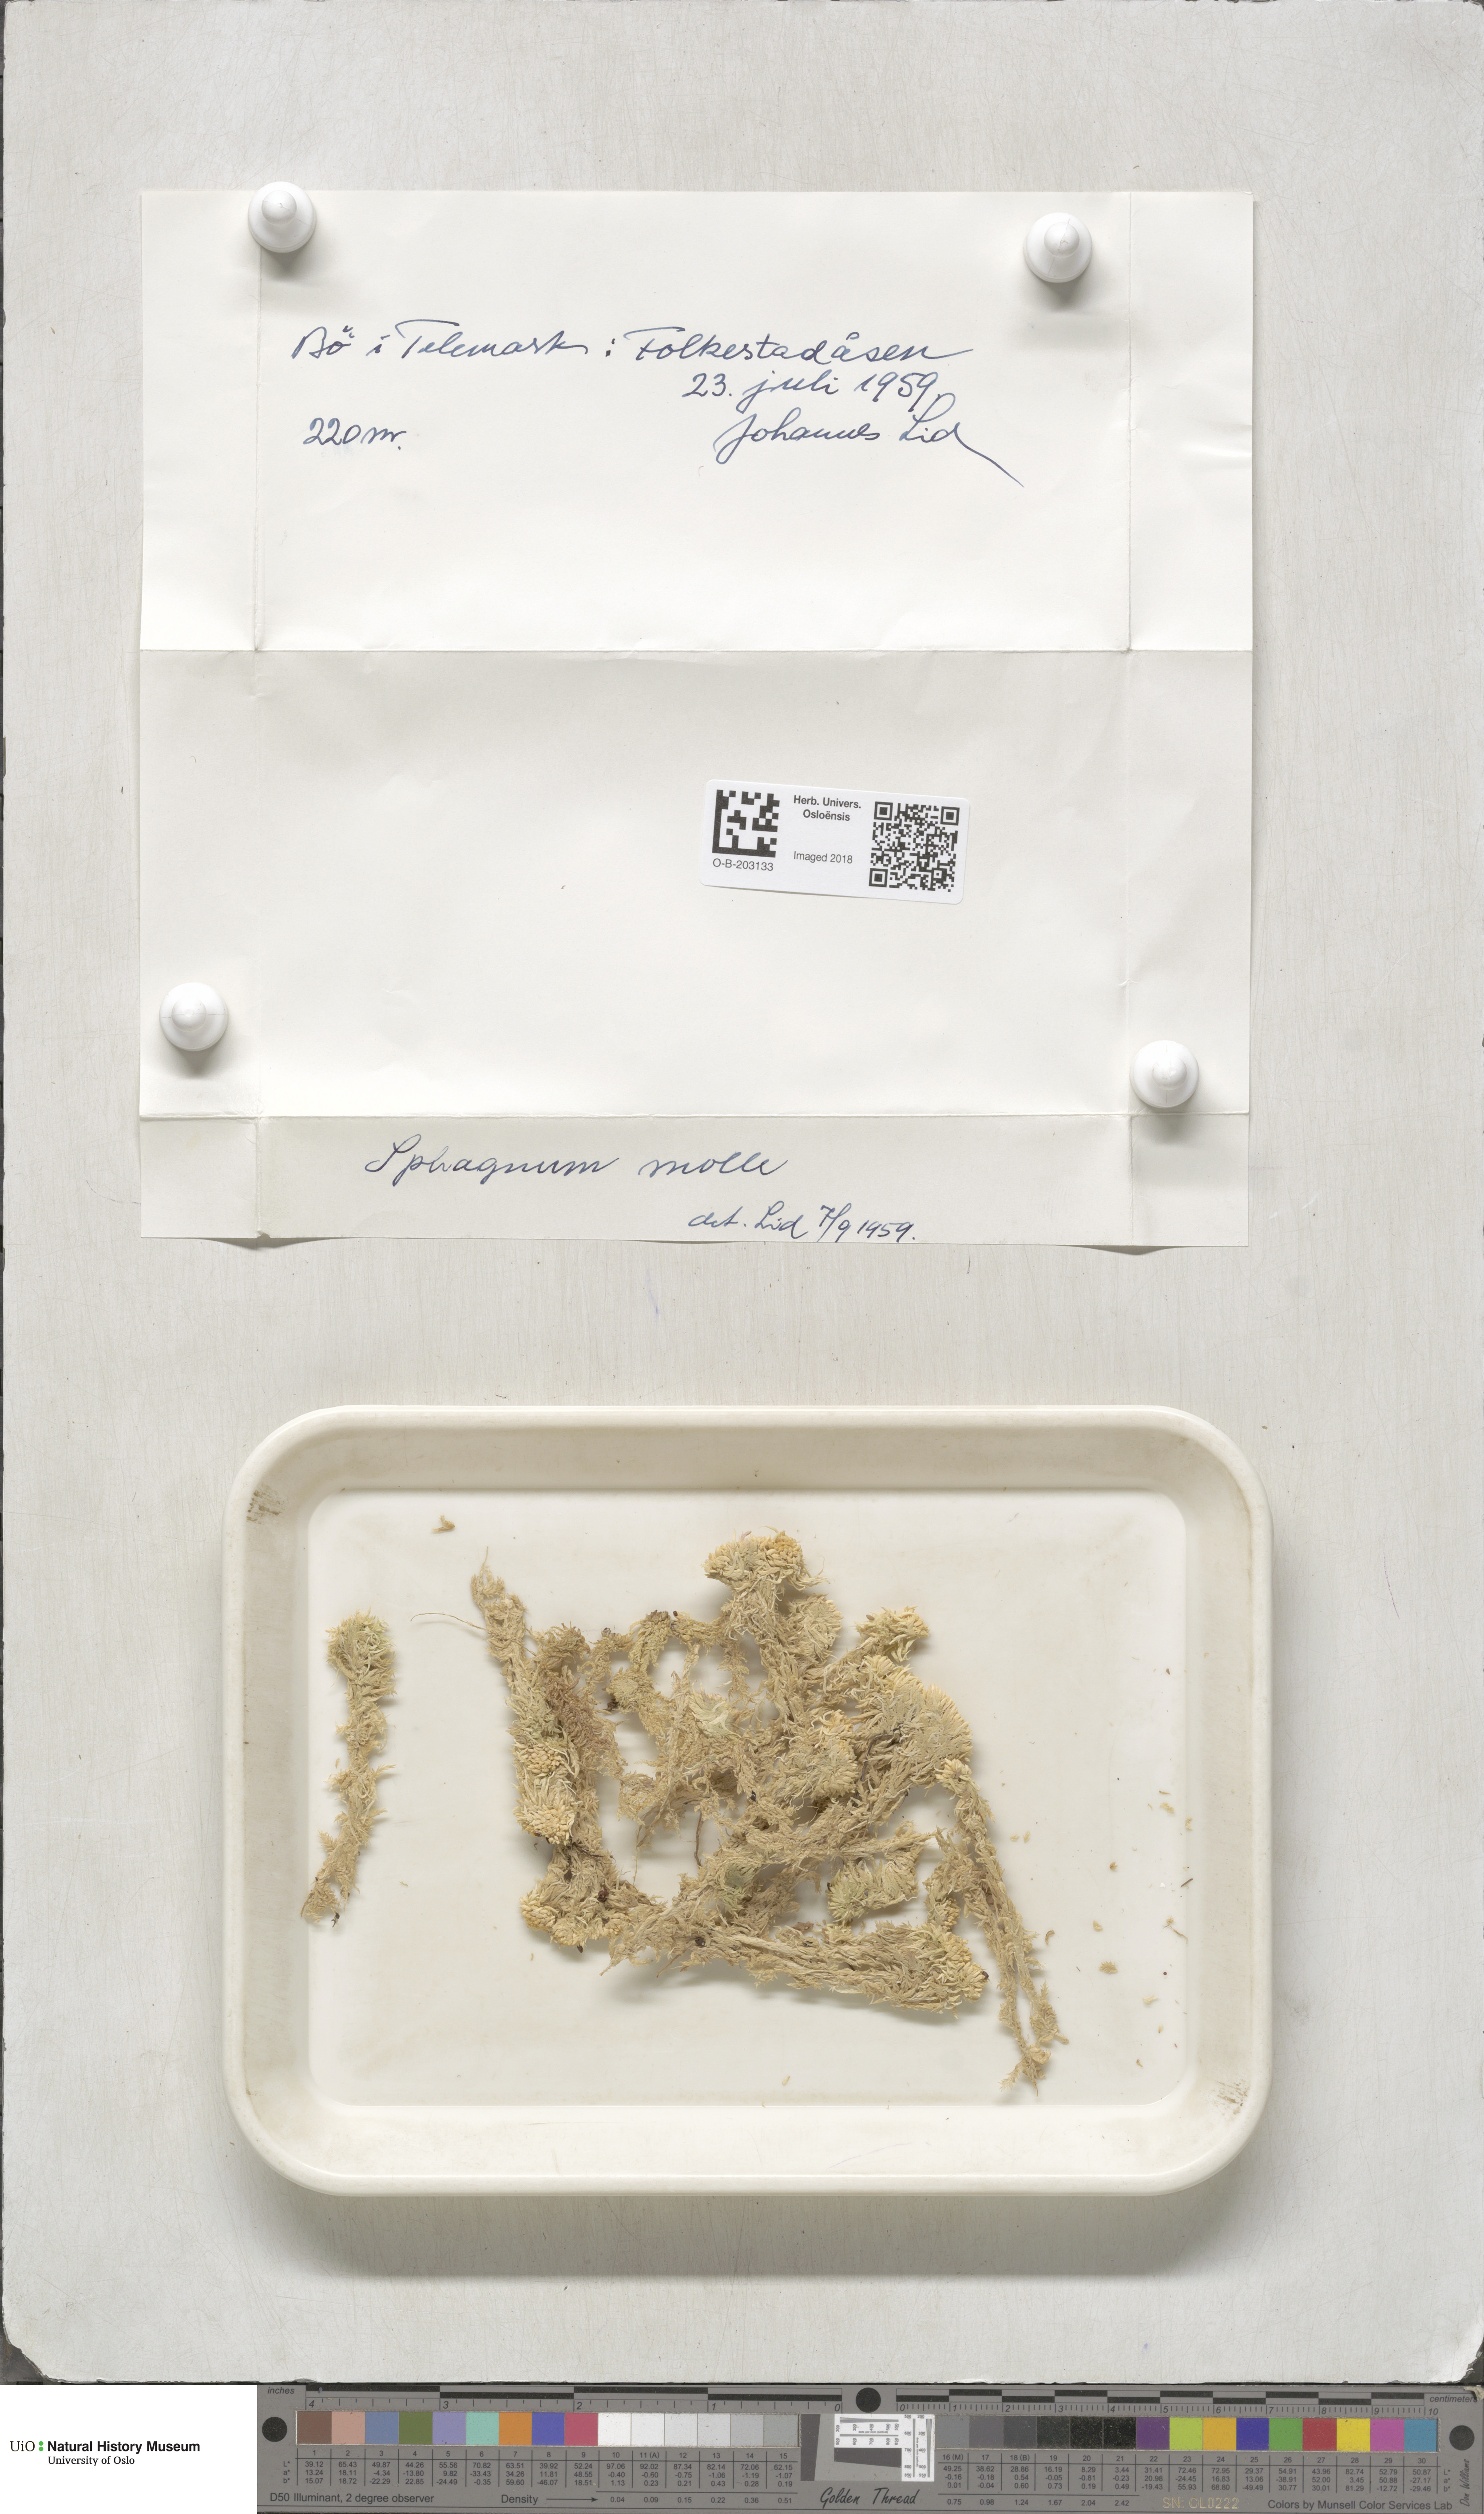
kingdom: Plantae
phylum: Bryophyta
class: Sphagnopsida
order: Sphagnales
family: Sphagnaceae
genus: Sphagnum
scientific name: Sphagnum molle
